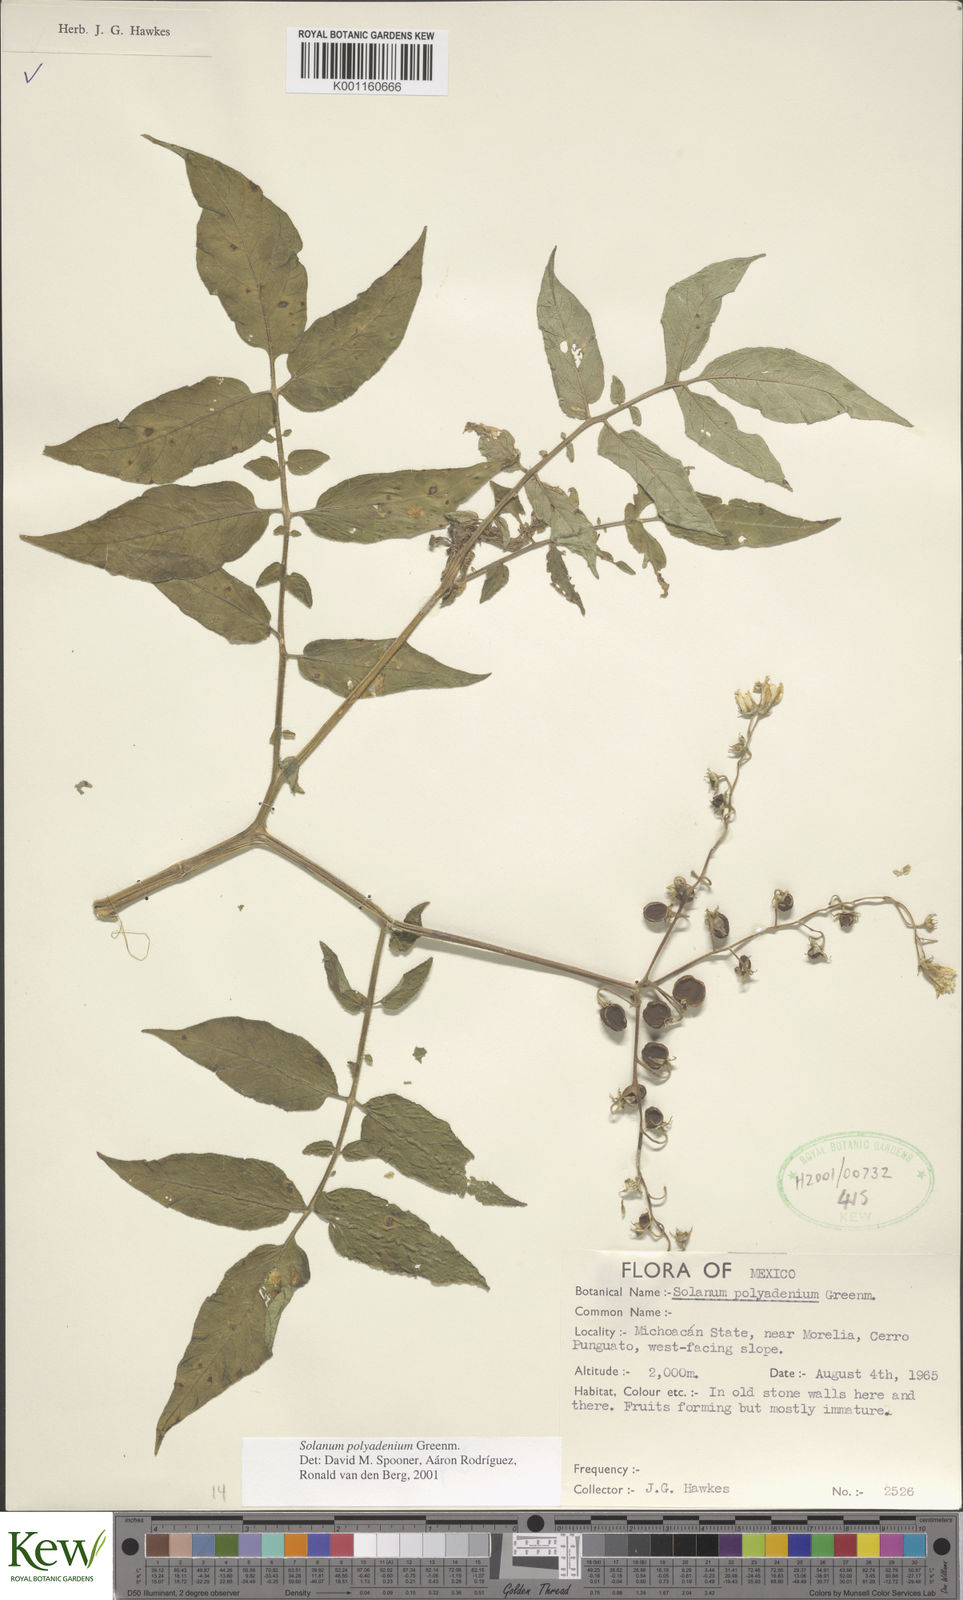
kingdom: Plantae
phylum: Tracheophyta
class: Magnoliopsida
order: Solanales
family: Solanaceae
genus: Solanum
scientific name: Solanum polyadenium
